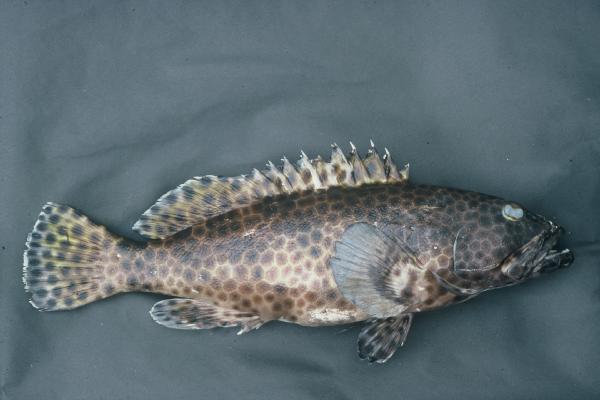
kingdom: Animalia
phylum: Chordata
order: Perciformes
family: Serranidae
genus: Epinephelus
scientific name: Epinephelus macrospilos
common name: Snubnose grouper
